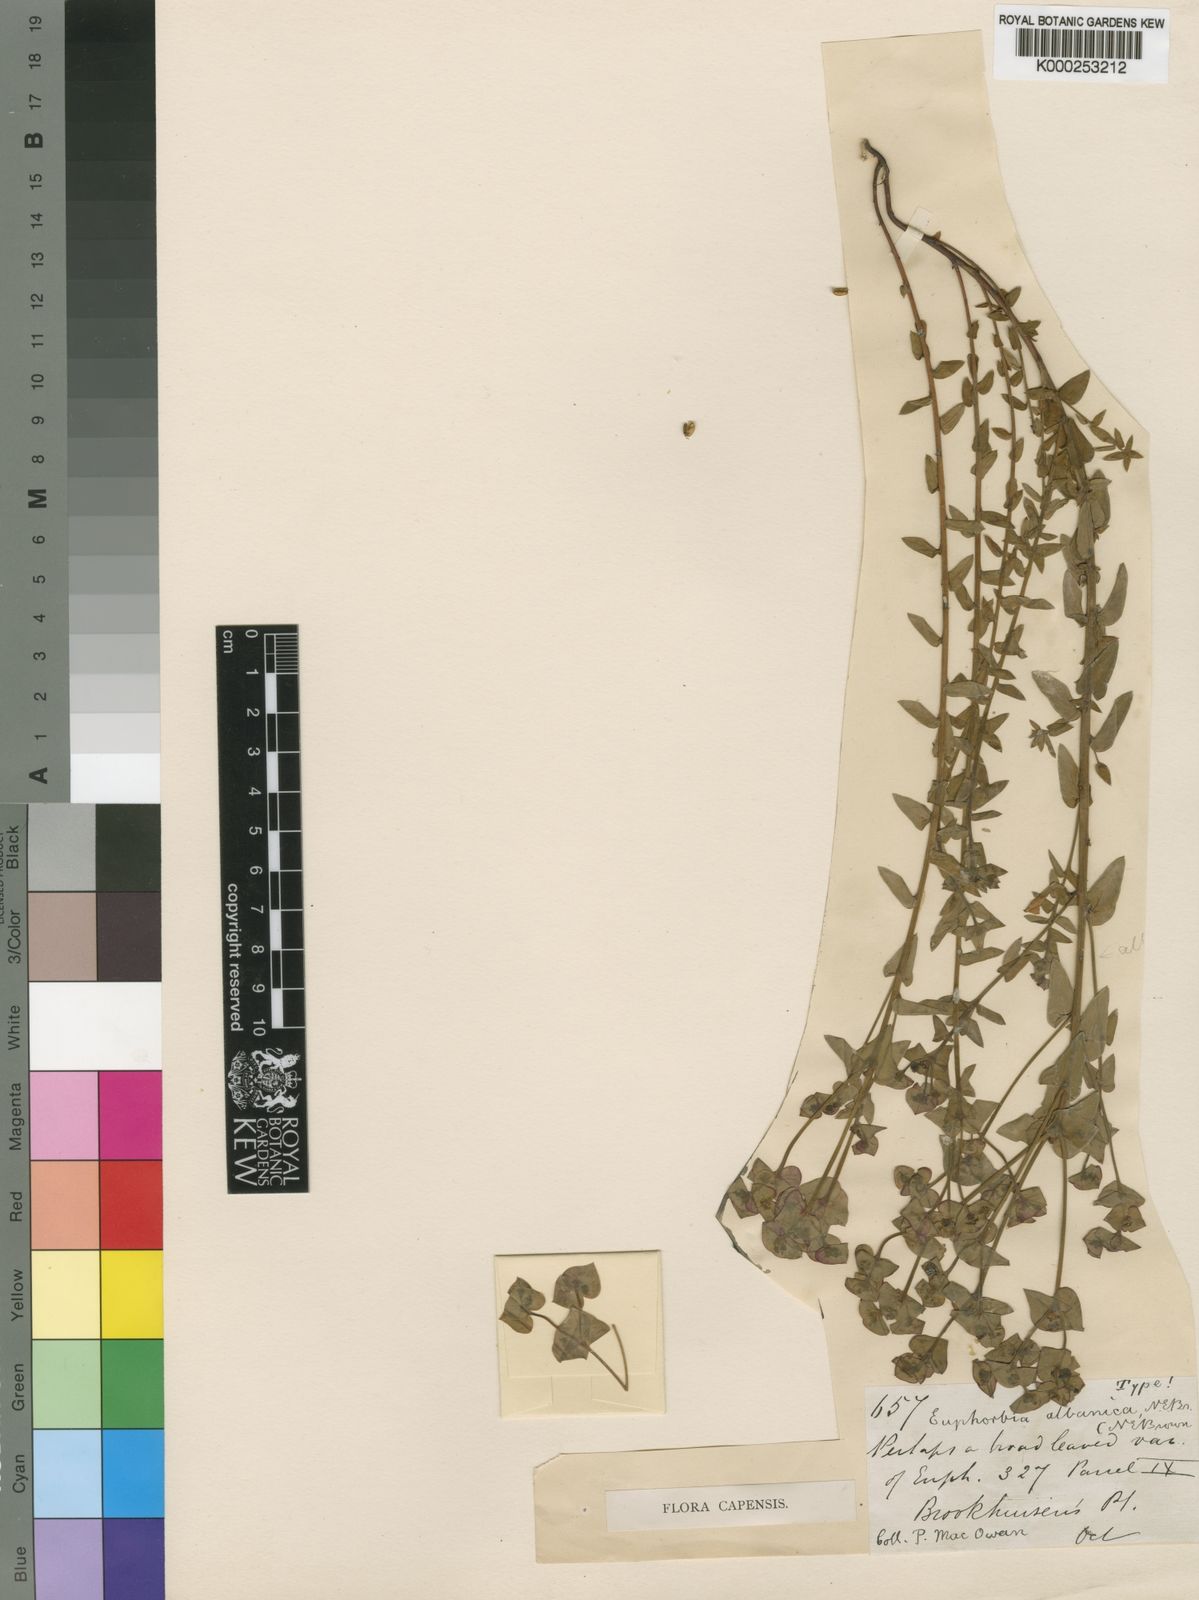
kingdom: Plantae
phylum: Tracheophyta
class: Magnoliopsida
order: Malpighiales
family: Euphorbiaceae
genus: Euphorbia
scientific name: Euphorbia albanica
